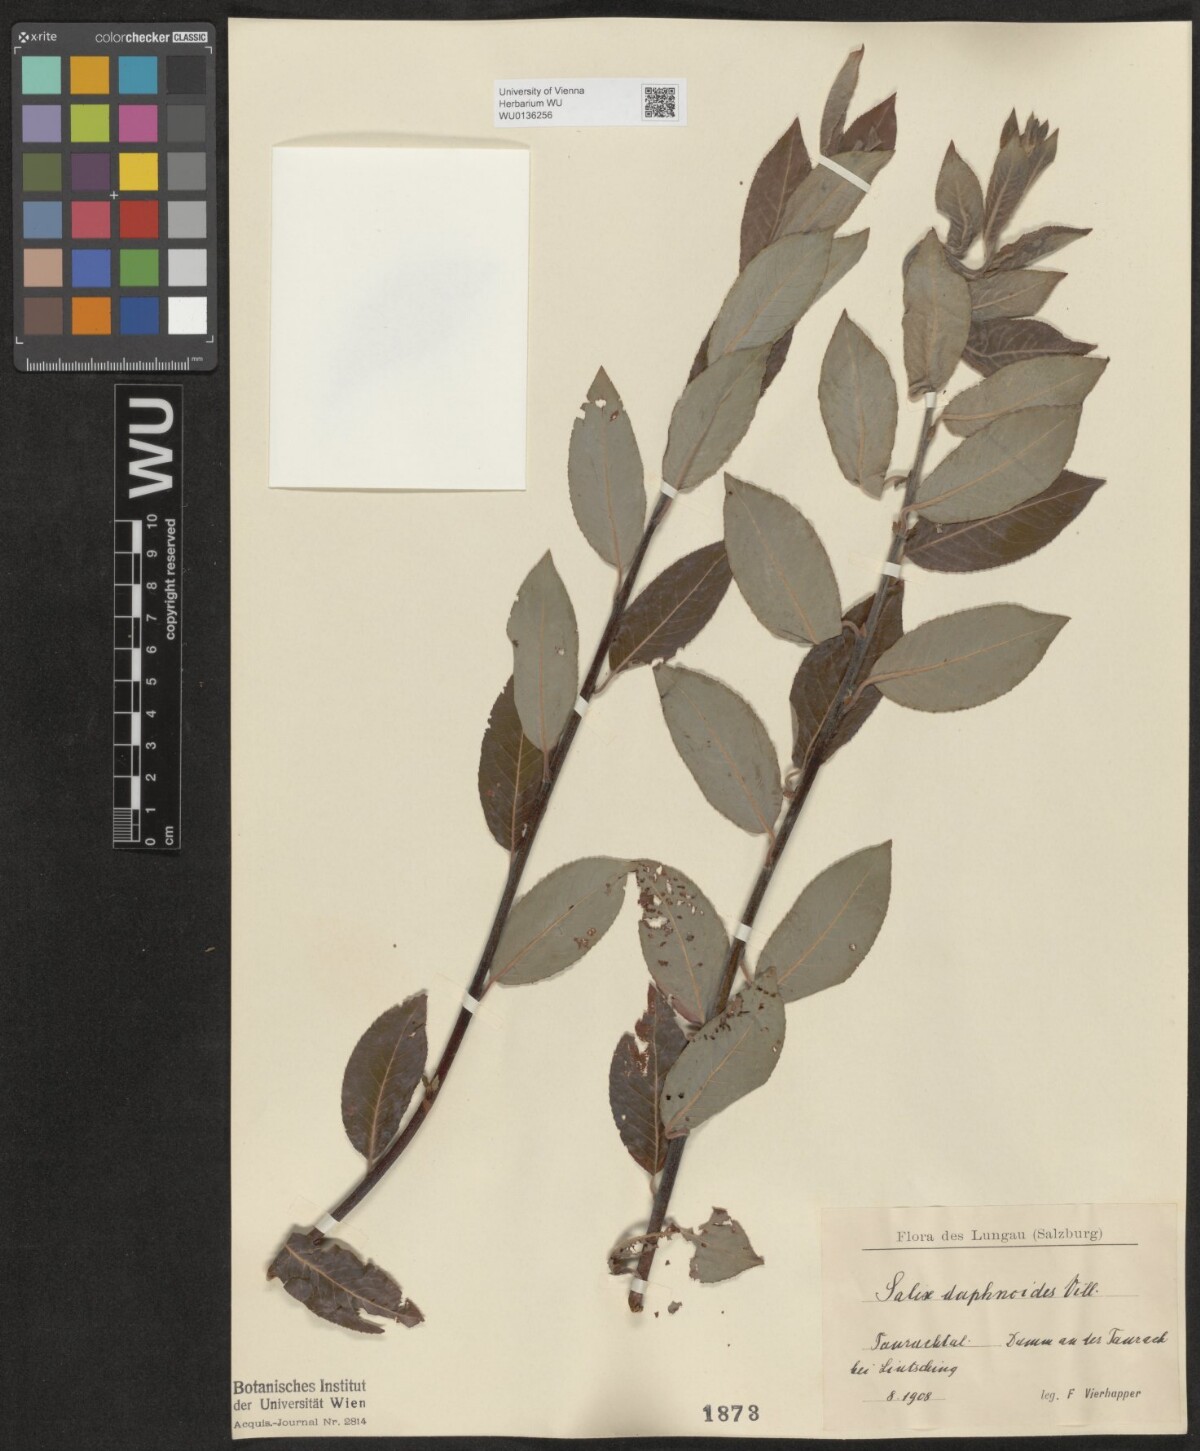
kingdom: Plantae
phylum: Tracheophyta
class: Magnoliopsida
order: Malpighiales
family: Salicaceae
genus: Salix
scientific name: Salix daphnoides
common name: European violet-willow
